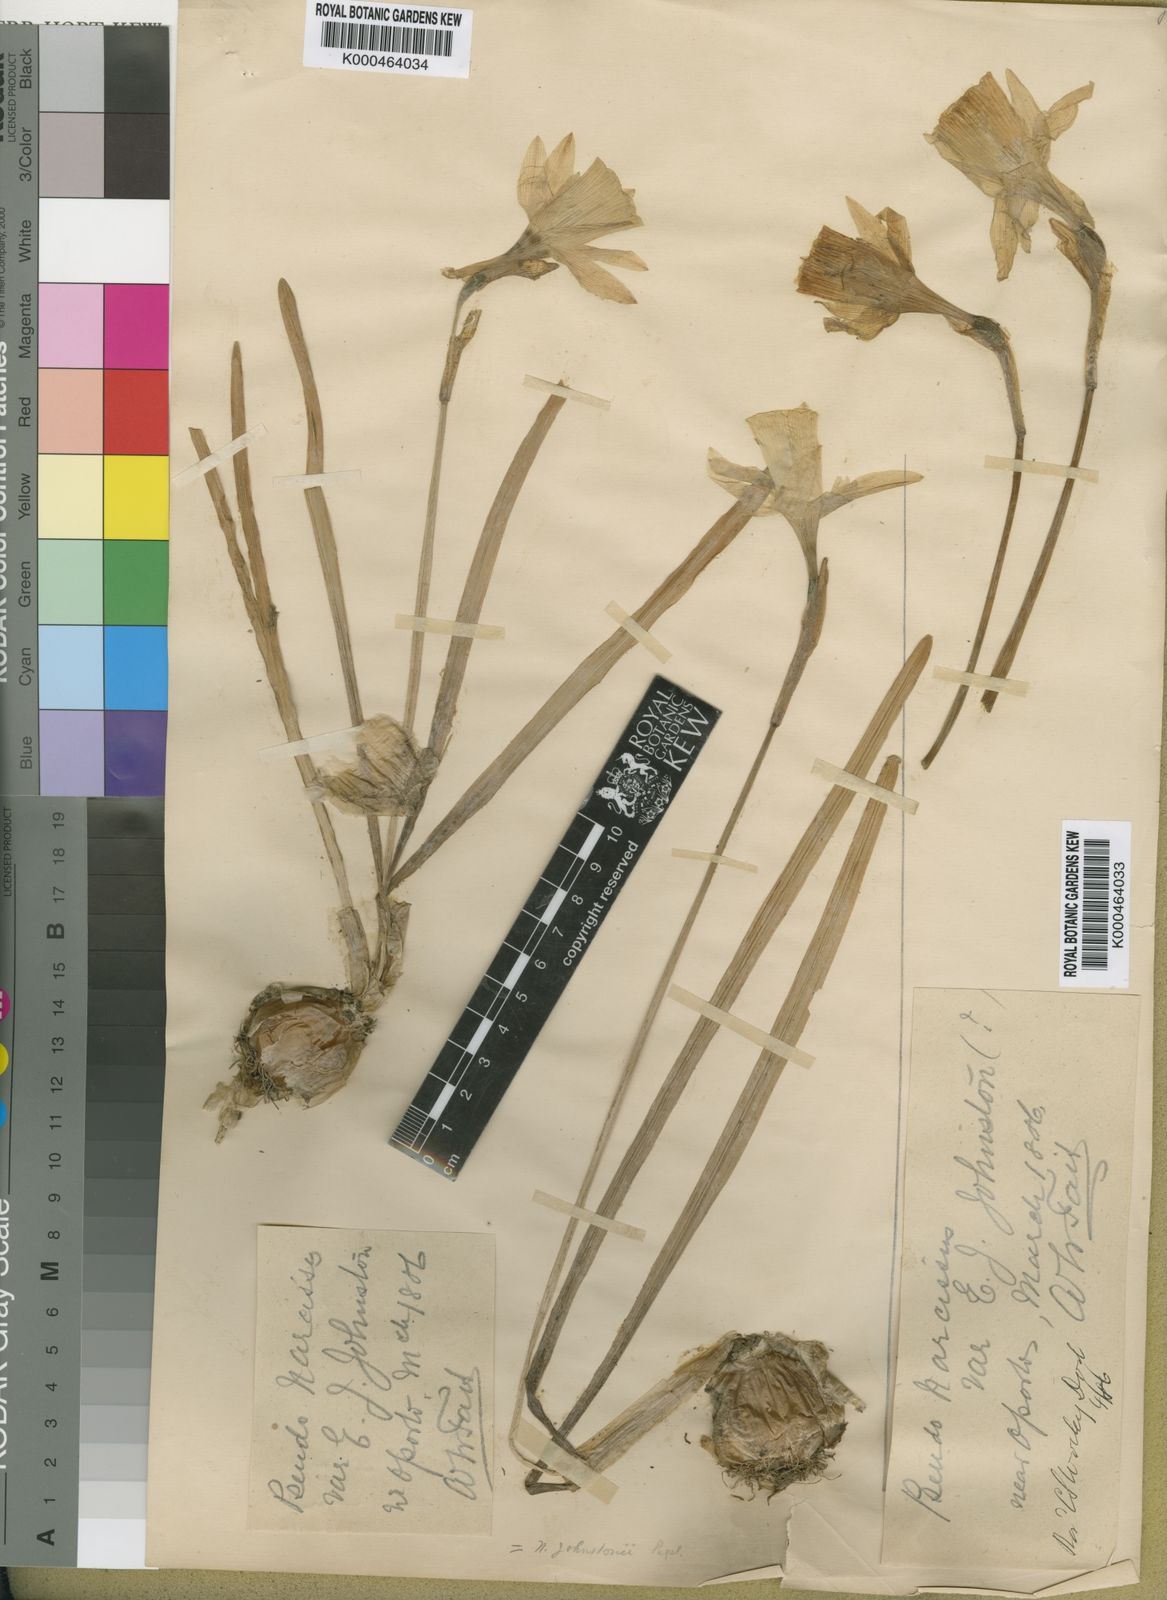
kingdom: Plantae
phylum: Tracheophyta
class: Liliopsida
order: Asparagales
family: Amaryllidaceae
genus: Narcissus
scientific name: Narcissus
